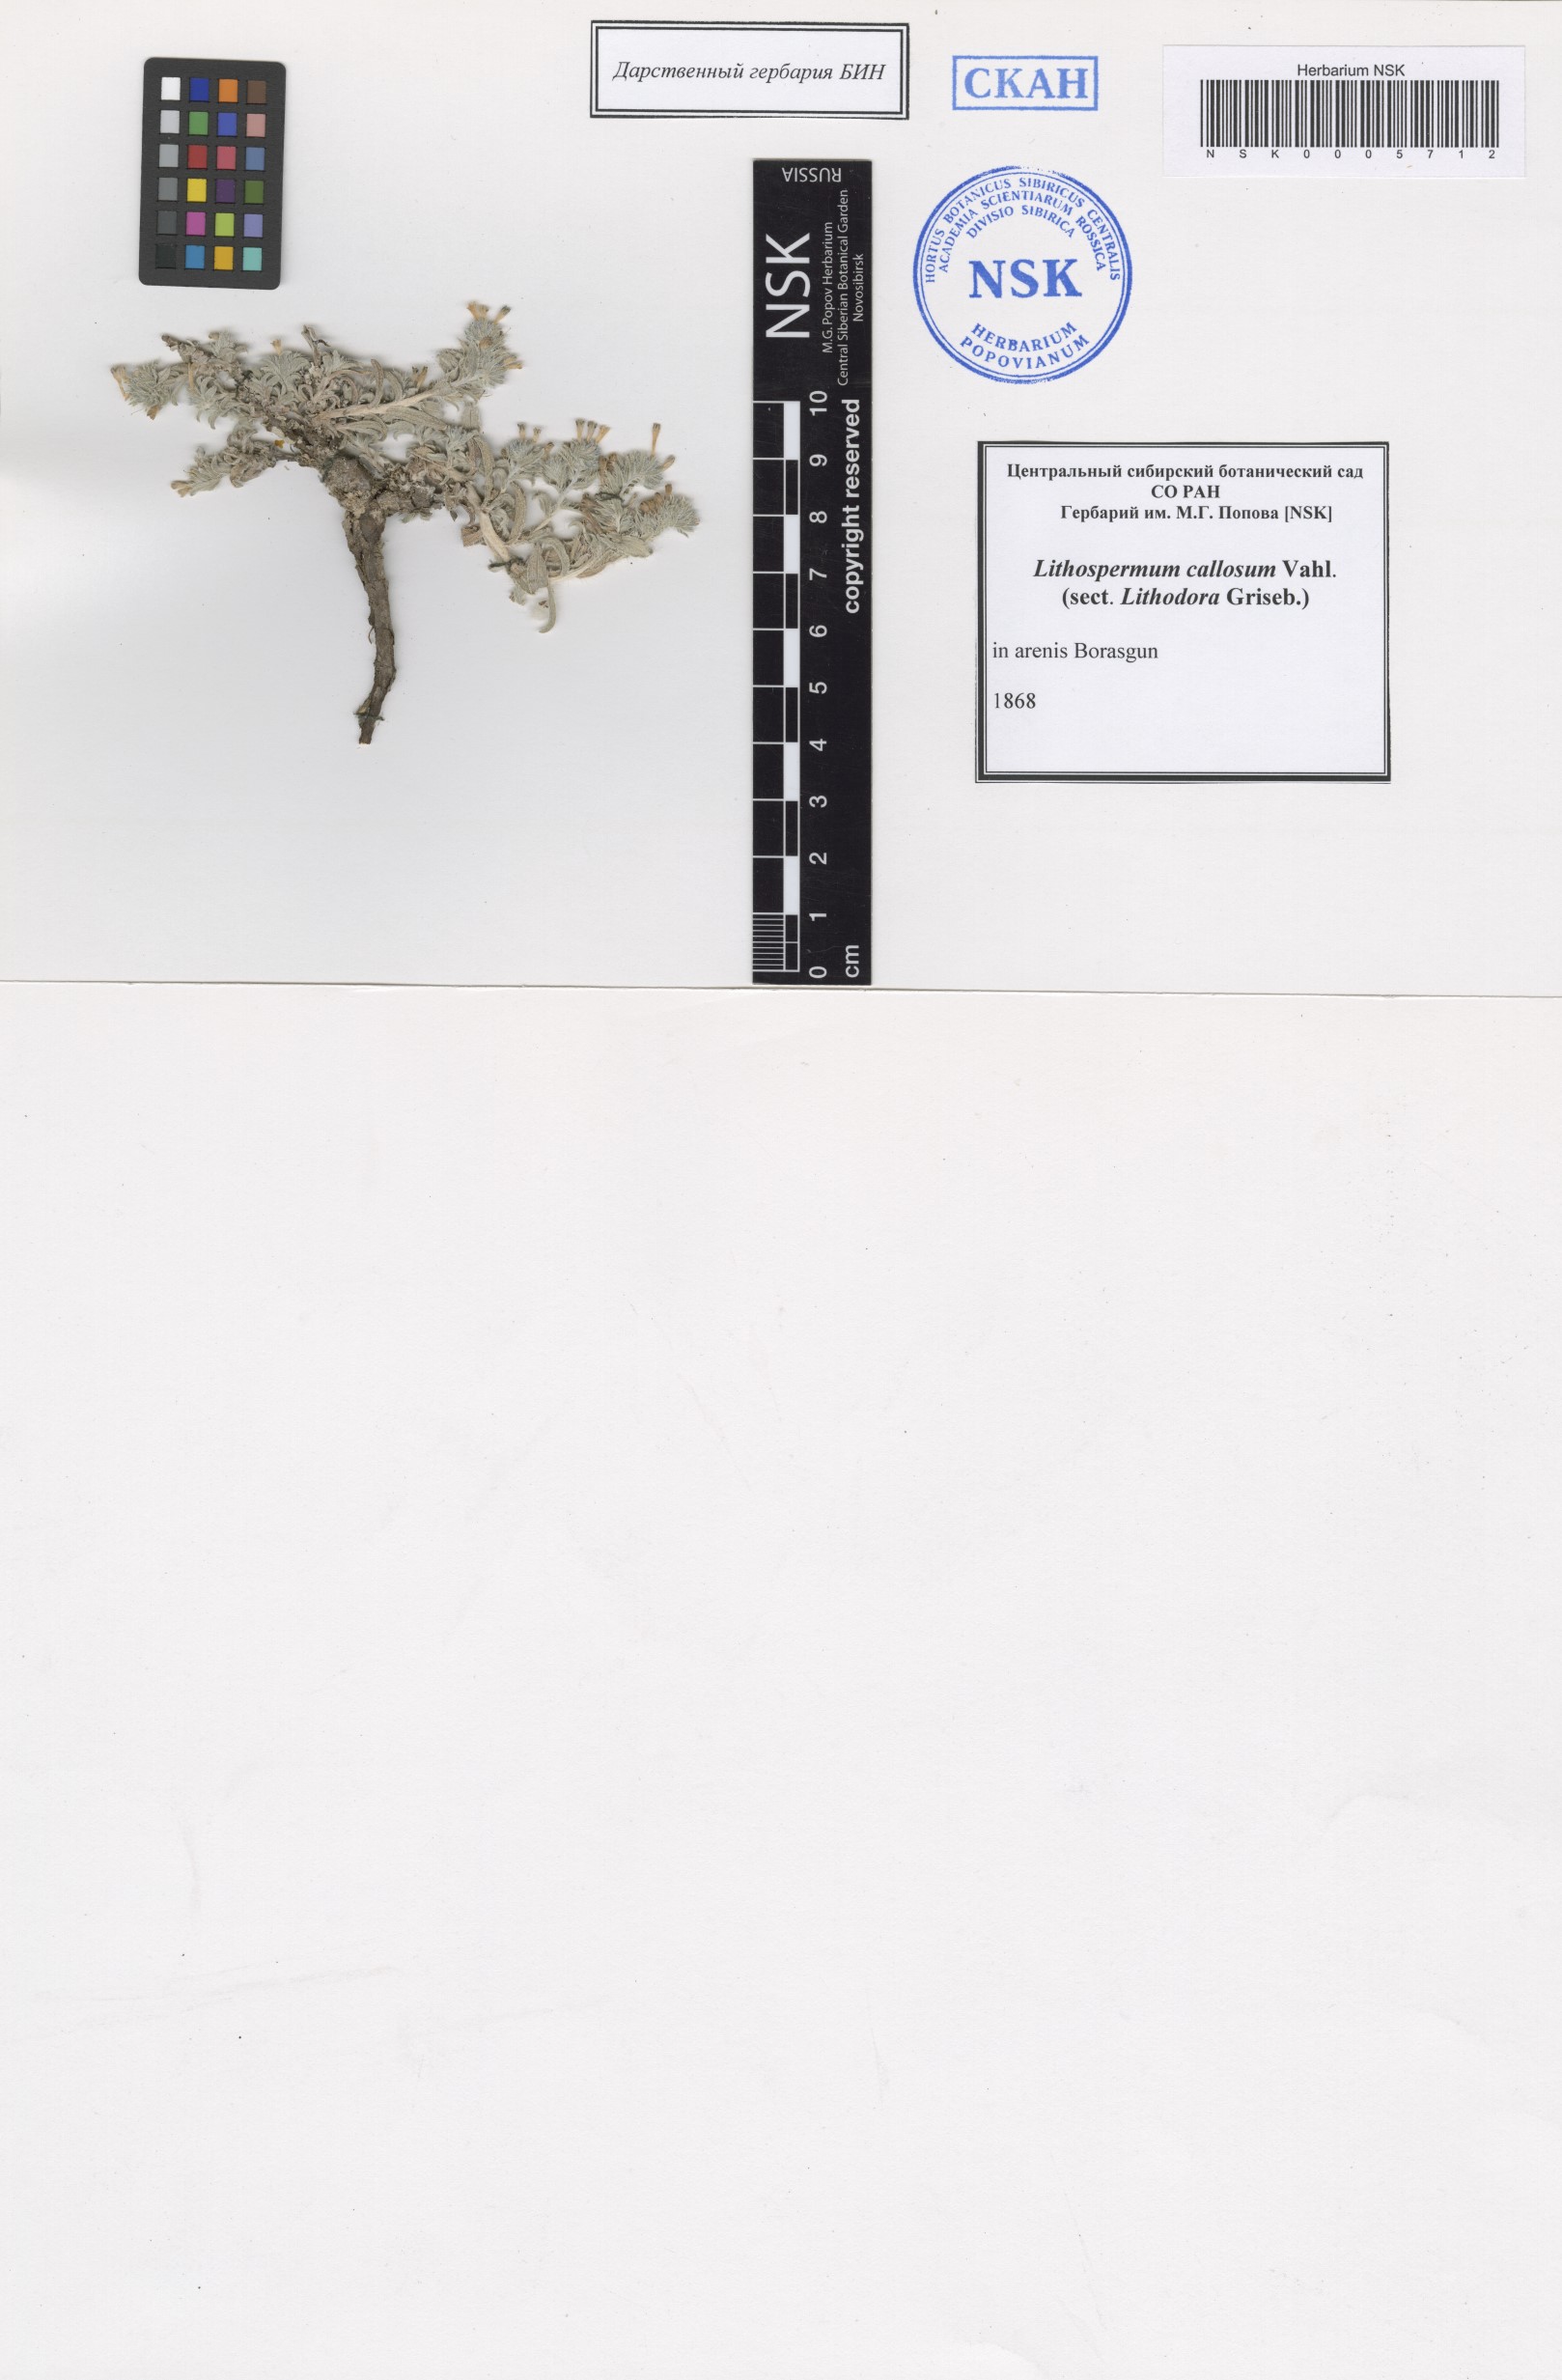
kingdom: Plantae
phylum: Tracheophyta
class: Magnoliopsida
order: Boraginales
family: Boraginaceae
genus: Moltkiopsis
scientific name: Moltkiopsis ciliata
